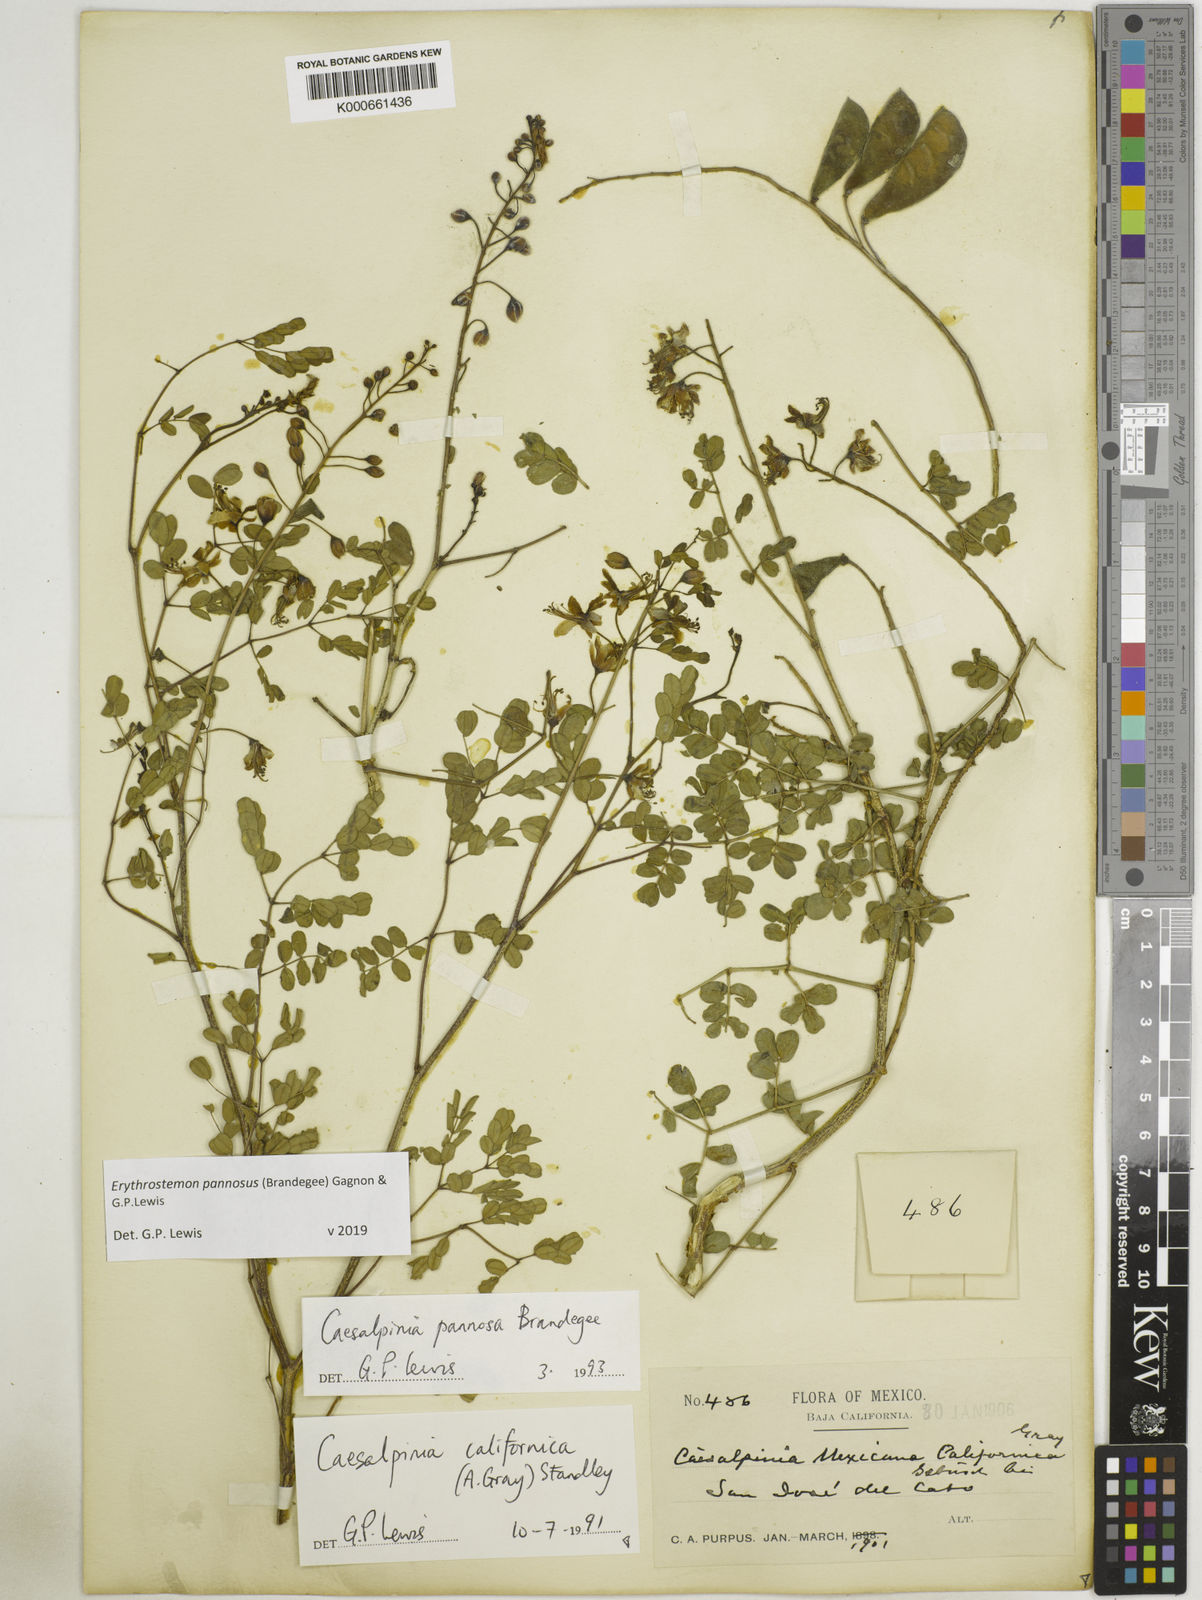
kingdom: Plantae
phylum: Tracheophyta
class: Magnoliopsida
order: Fabales
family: Fabaceae
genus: Erythrostemon
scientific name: Erythrostemon pannosus
